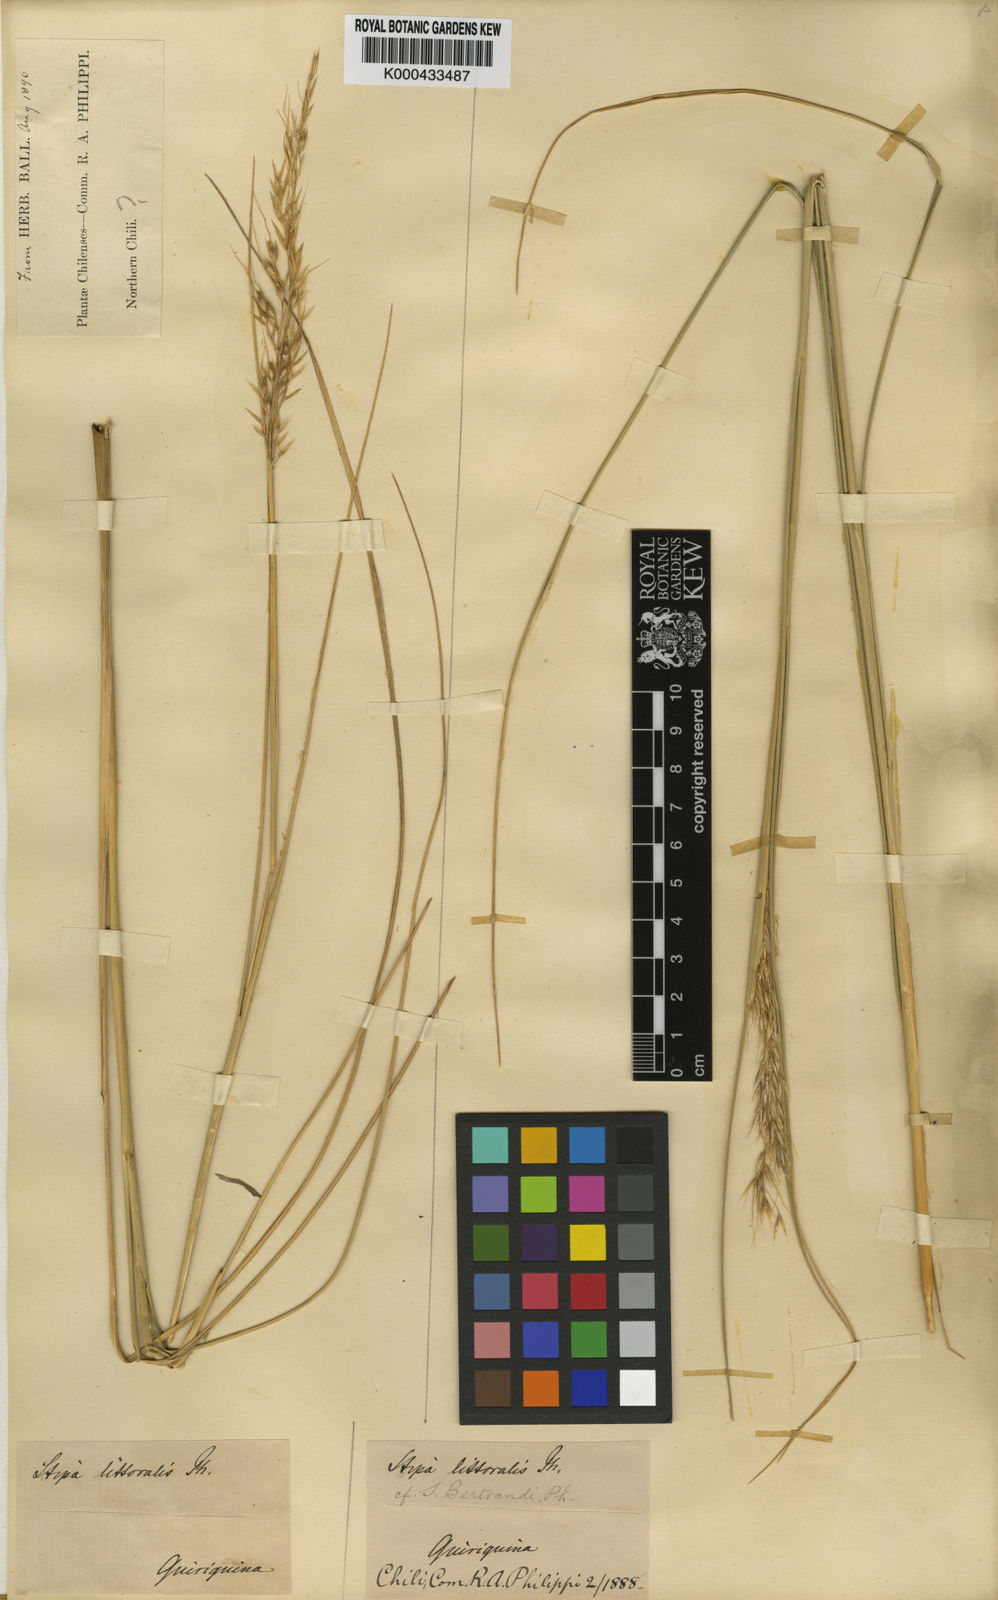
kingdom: Plantae
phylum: Tracheophyta
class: Liliopsida
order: Poales
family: Poaceae
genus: Amelichloa
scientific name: Amelichloa caudata
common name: Chilean ricegrass
